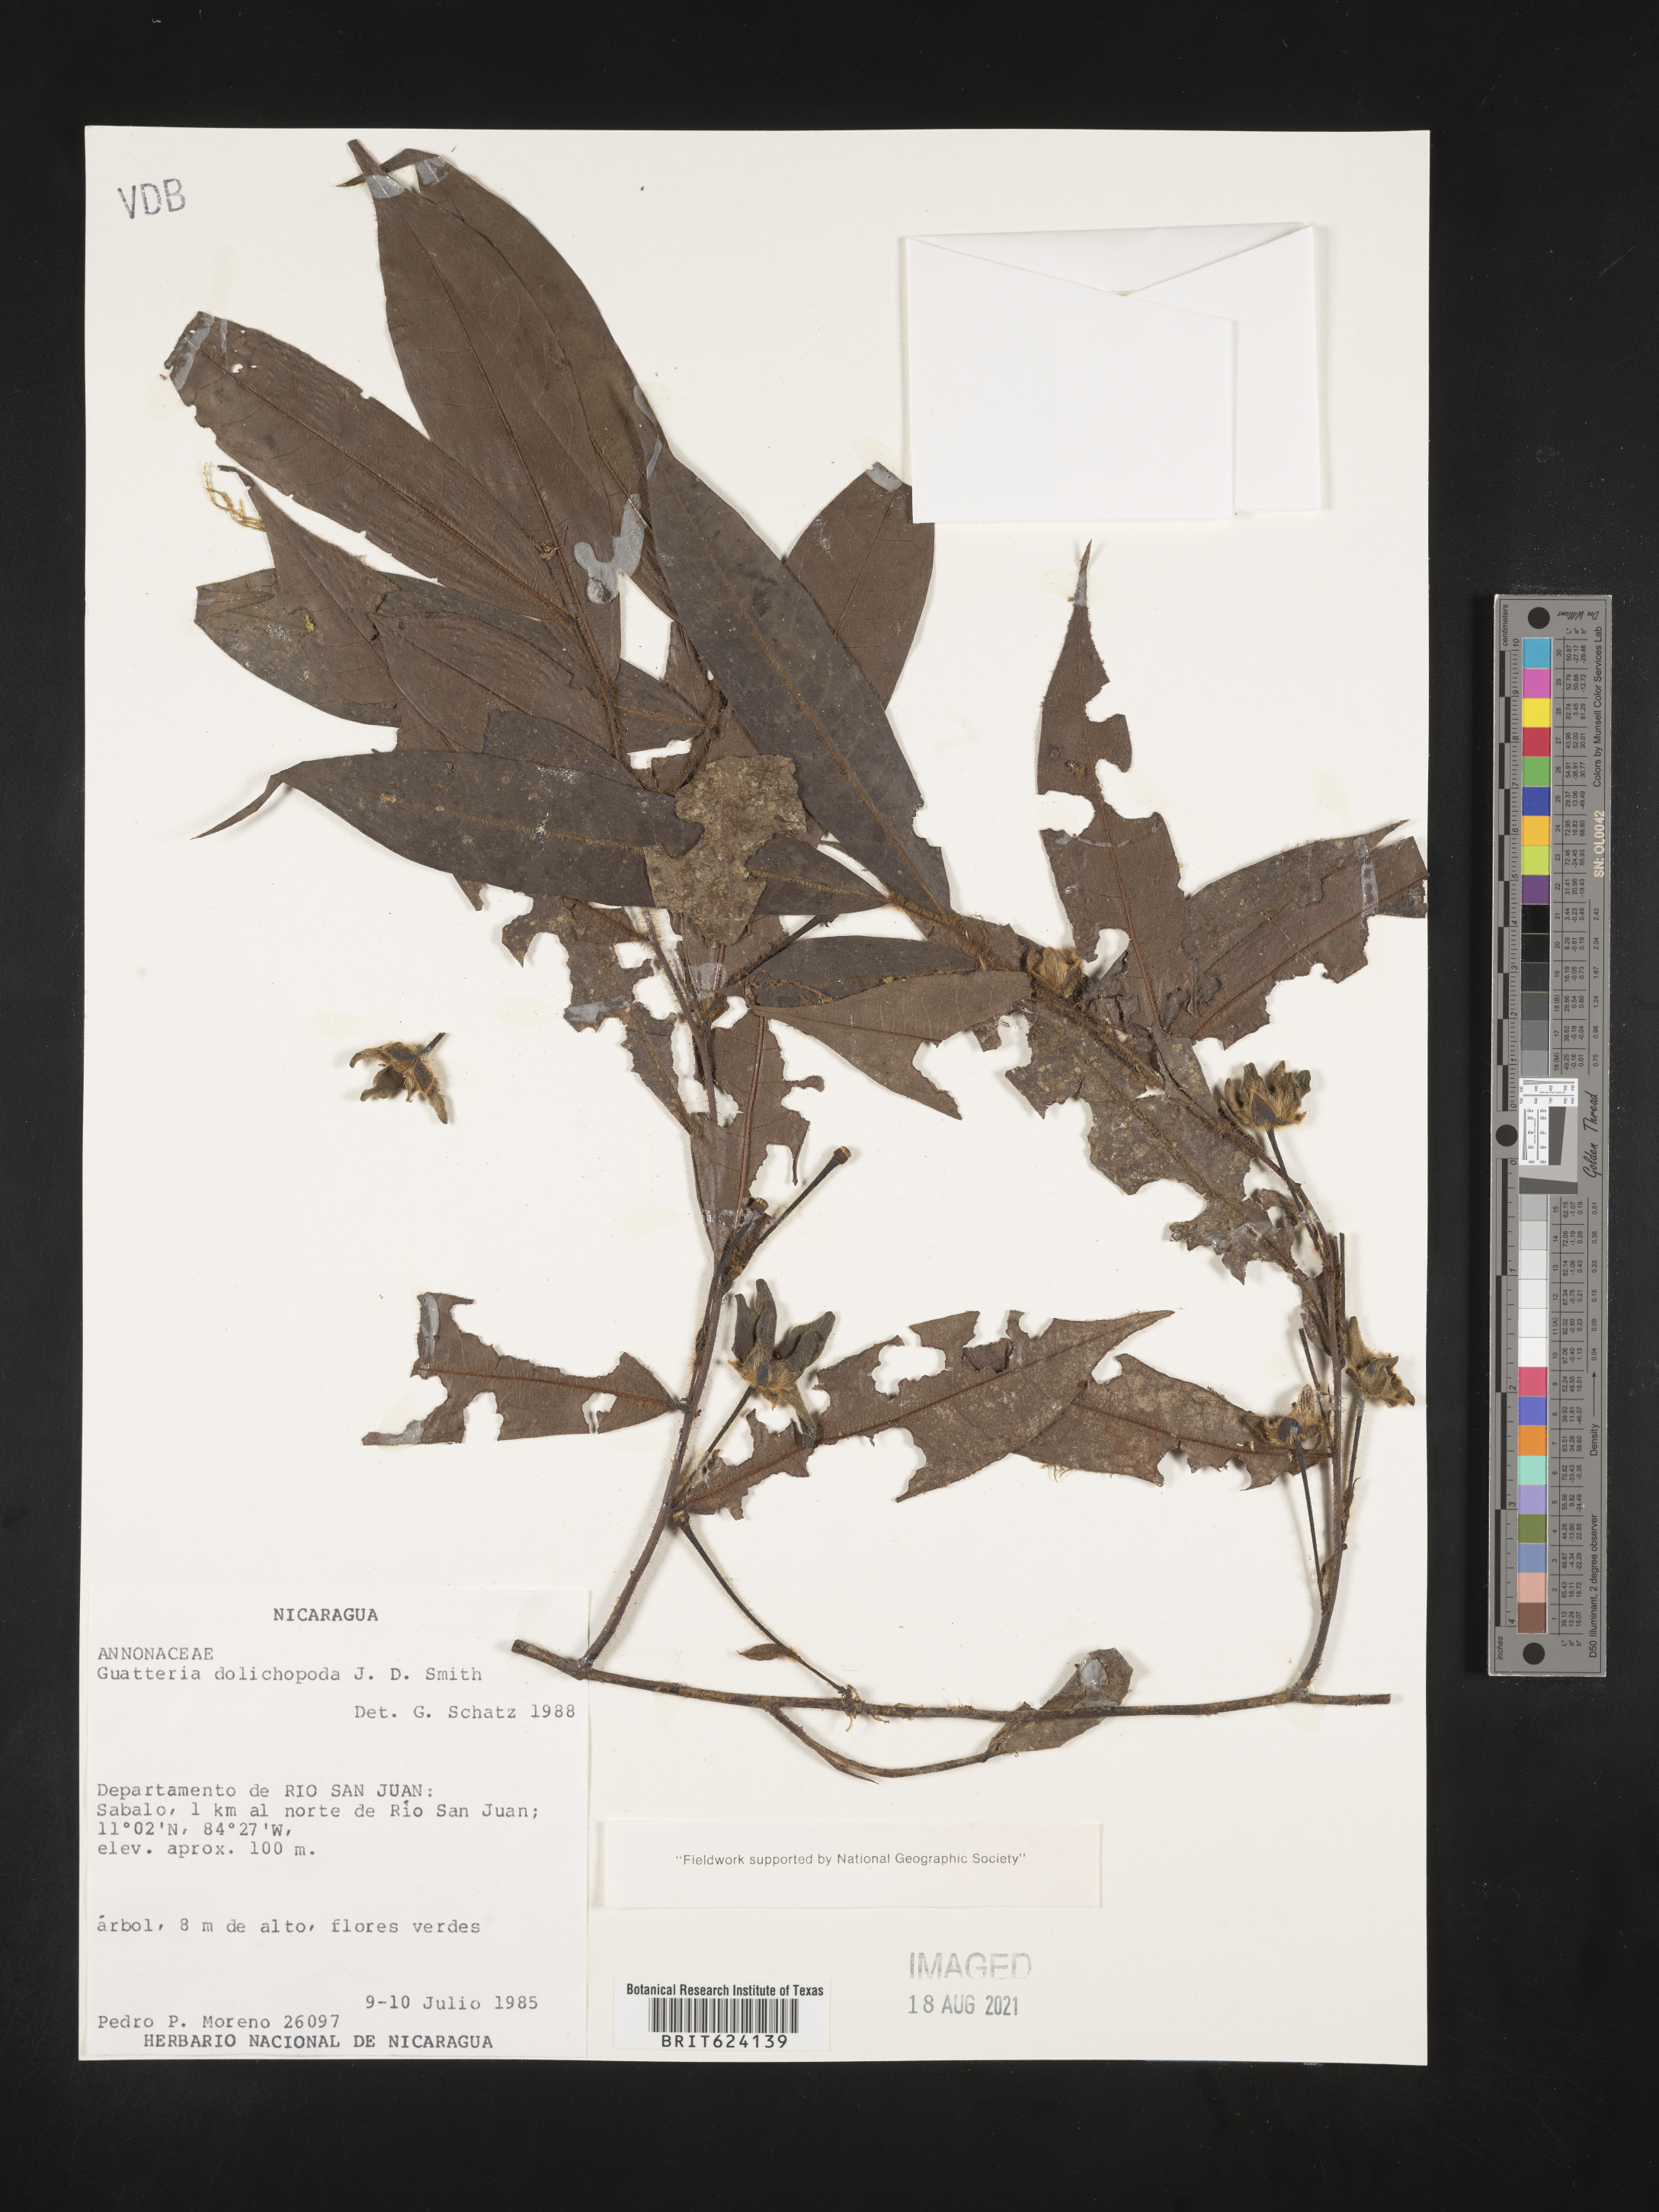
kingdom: Plantae
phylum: Tracheophyta
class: Magnoliopsida
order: Magnoliales
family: Annonaceae
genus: Guatteria
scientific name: Guatteria dolichopoda
